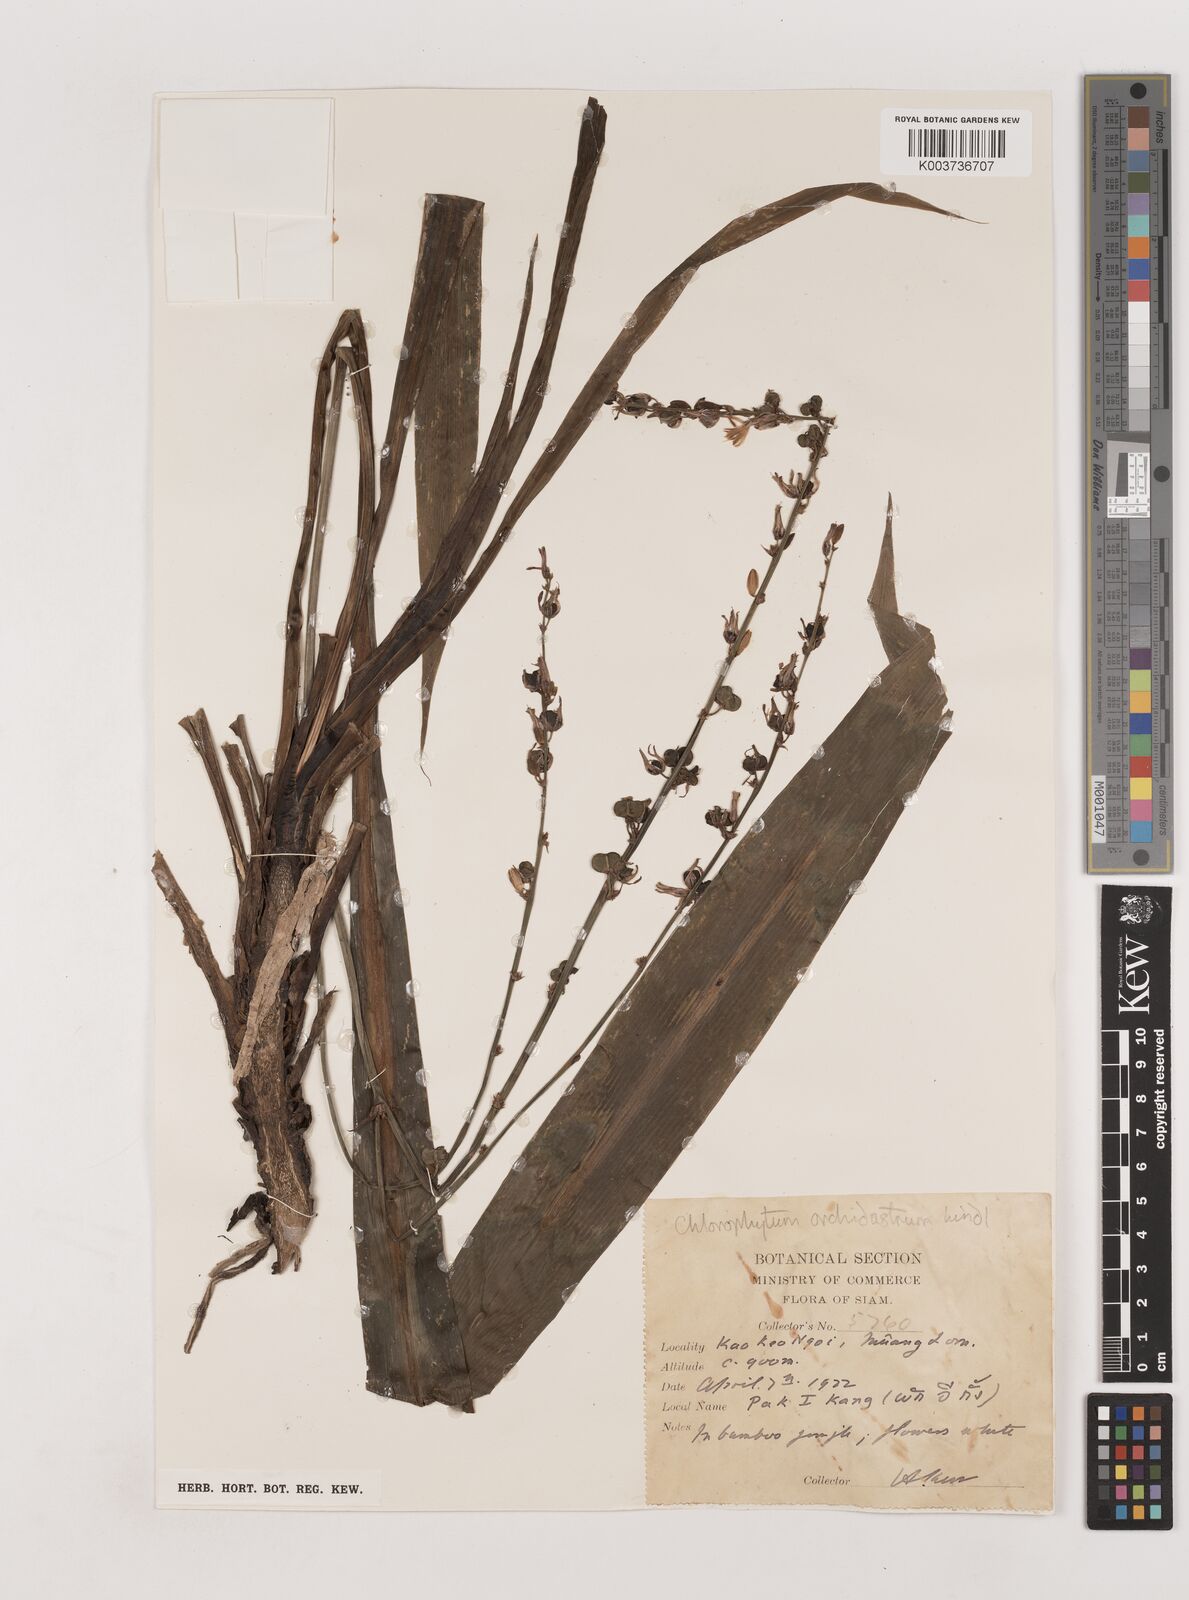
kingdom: Plantae
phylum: Tracheophyta
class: Liliopsida
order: Asparagales
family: Asparagaceae
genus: Chlorophytum
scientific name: Chlorophytum orchidastrum
